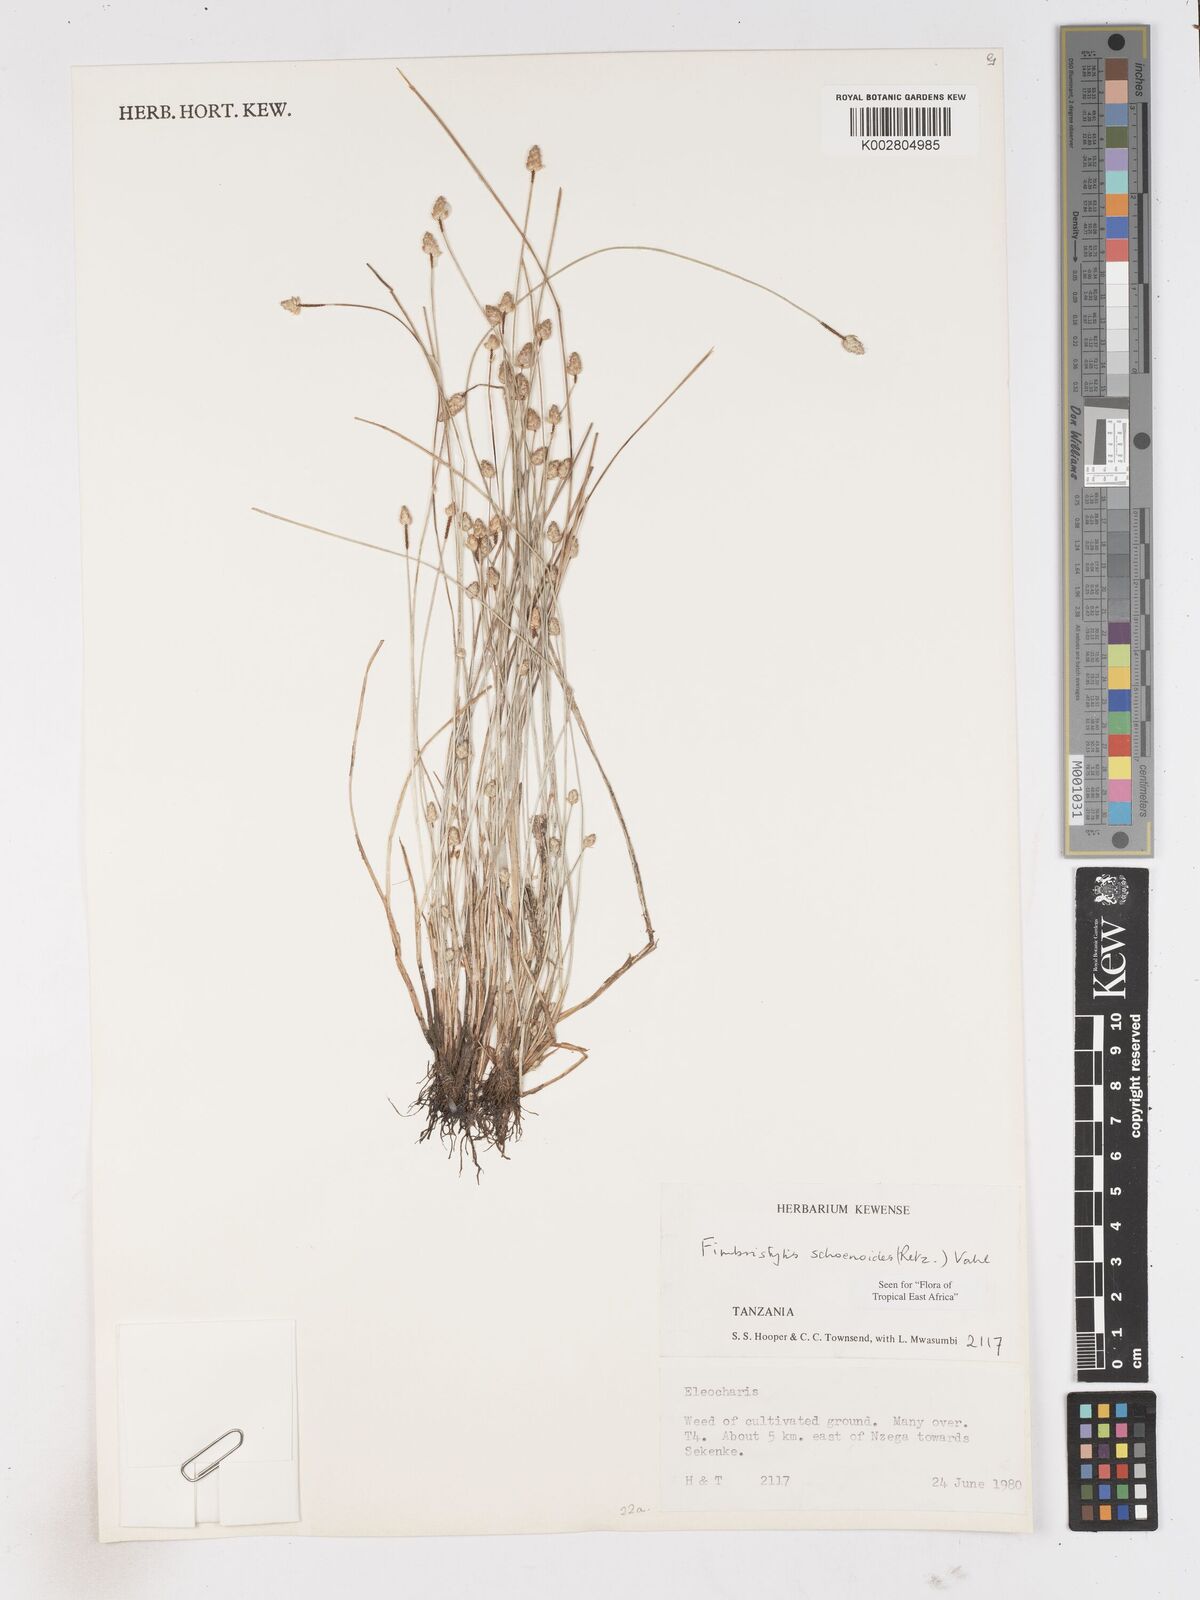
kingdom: Plantae
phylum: Tracheophyta
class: Liliopsida
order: Poales
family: Cyperaceae
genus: Fimbristylis
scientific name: Fimbristylis schoenoides
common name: Ditch fimbry
